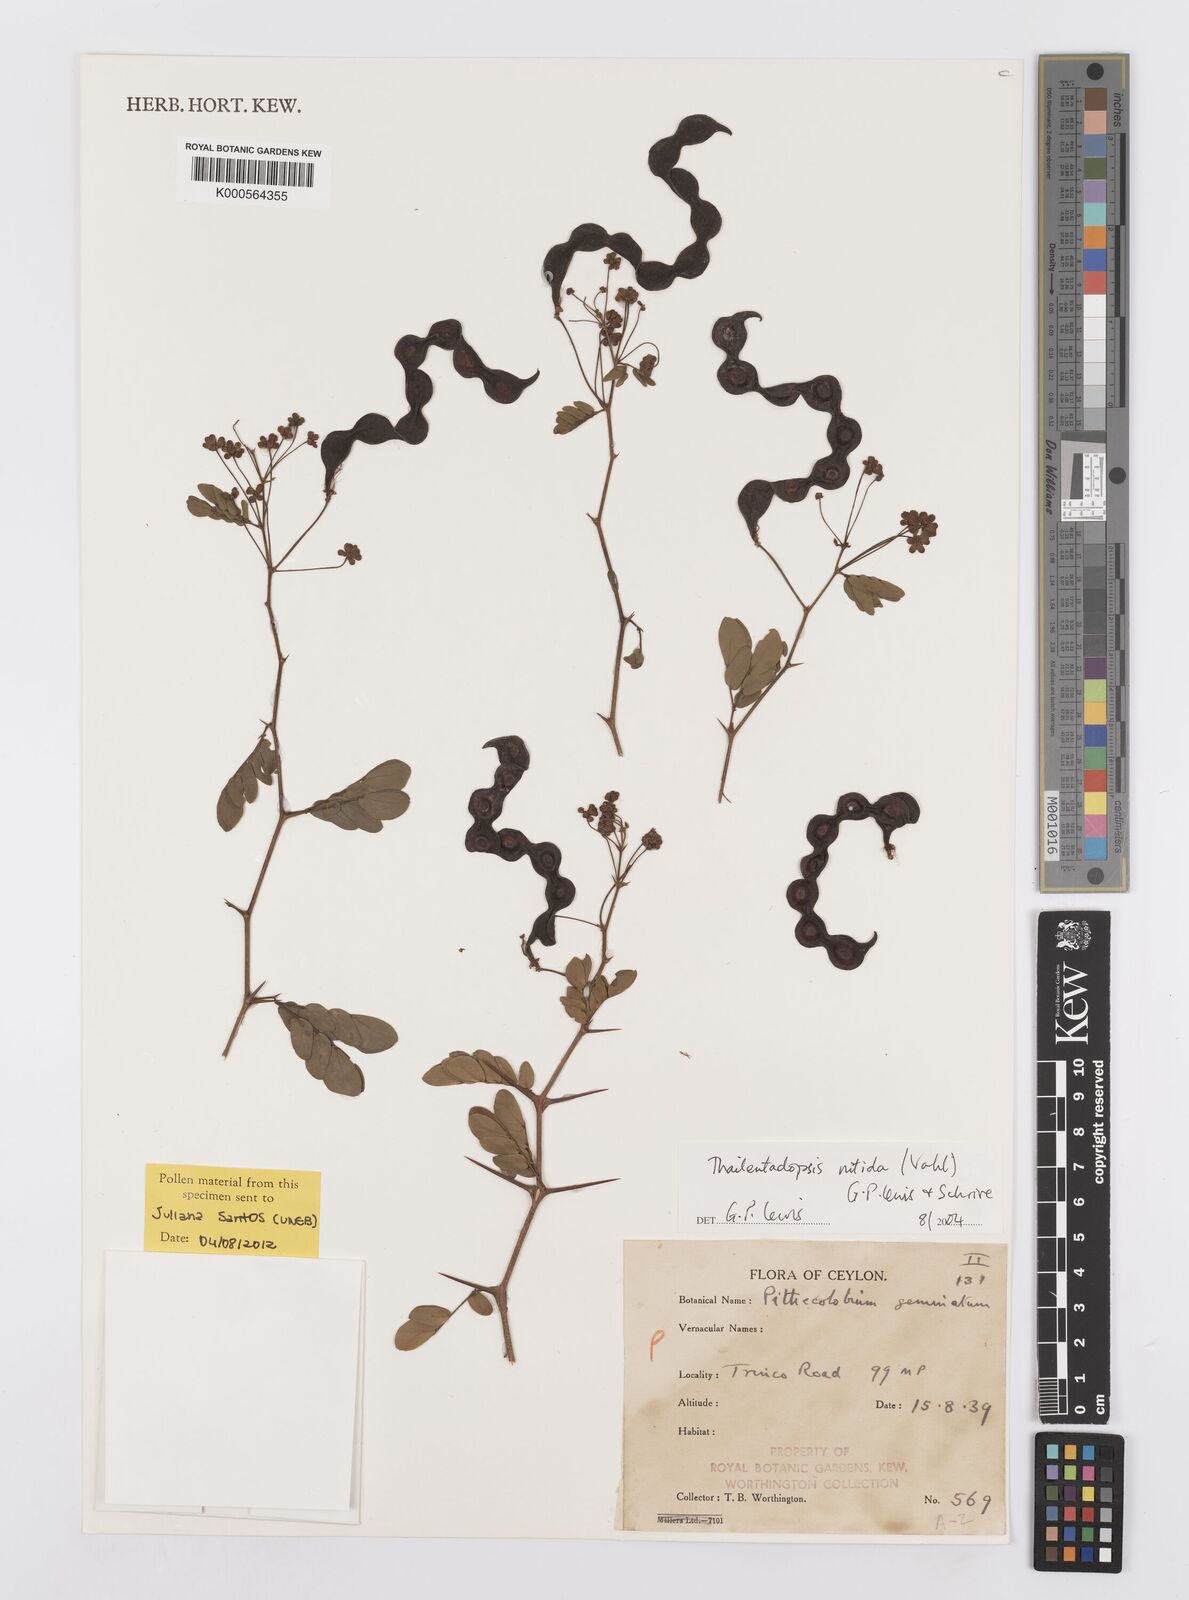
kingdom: Plantae
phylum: Tracheophyta
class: Magnoliopsida
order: Fabales
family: Fabaceae
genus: Thailentadopsis
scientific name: Thailentadopsis nitida
